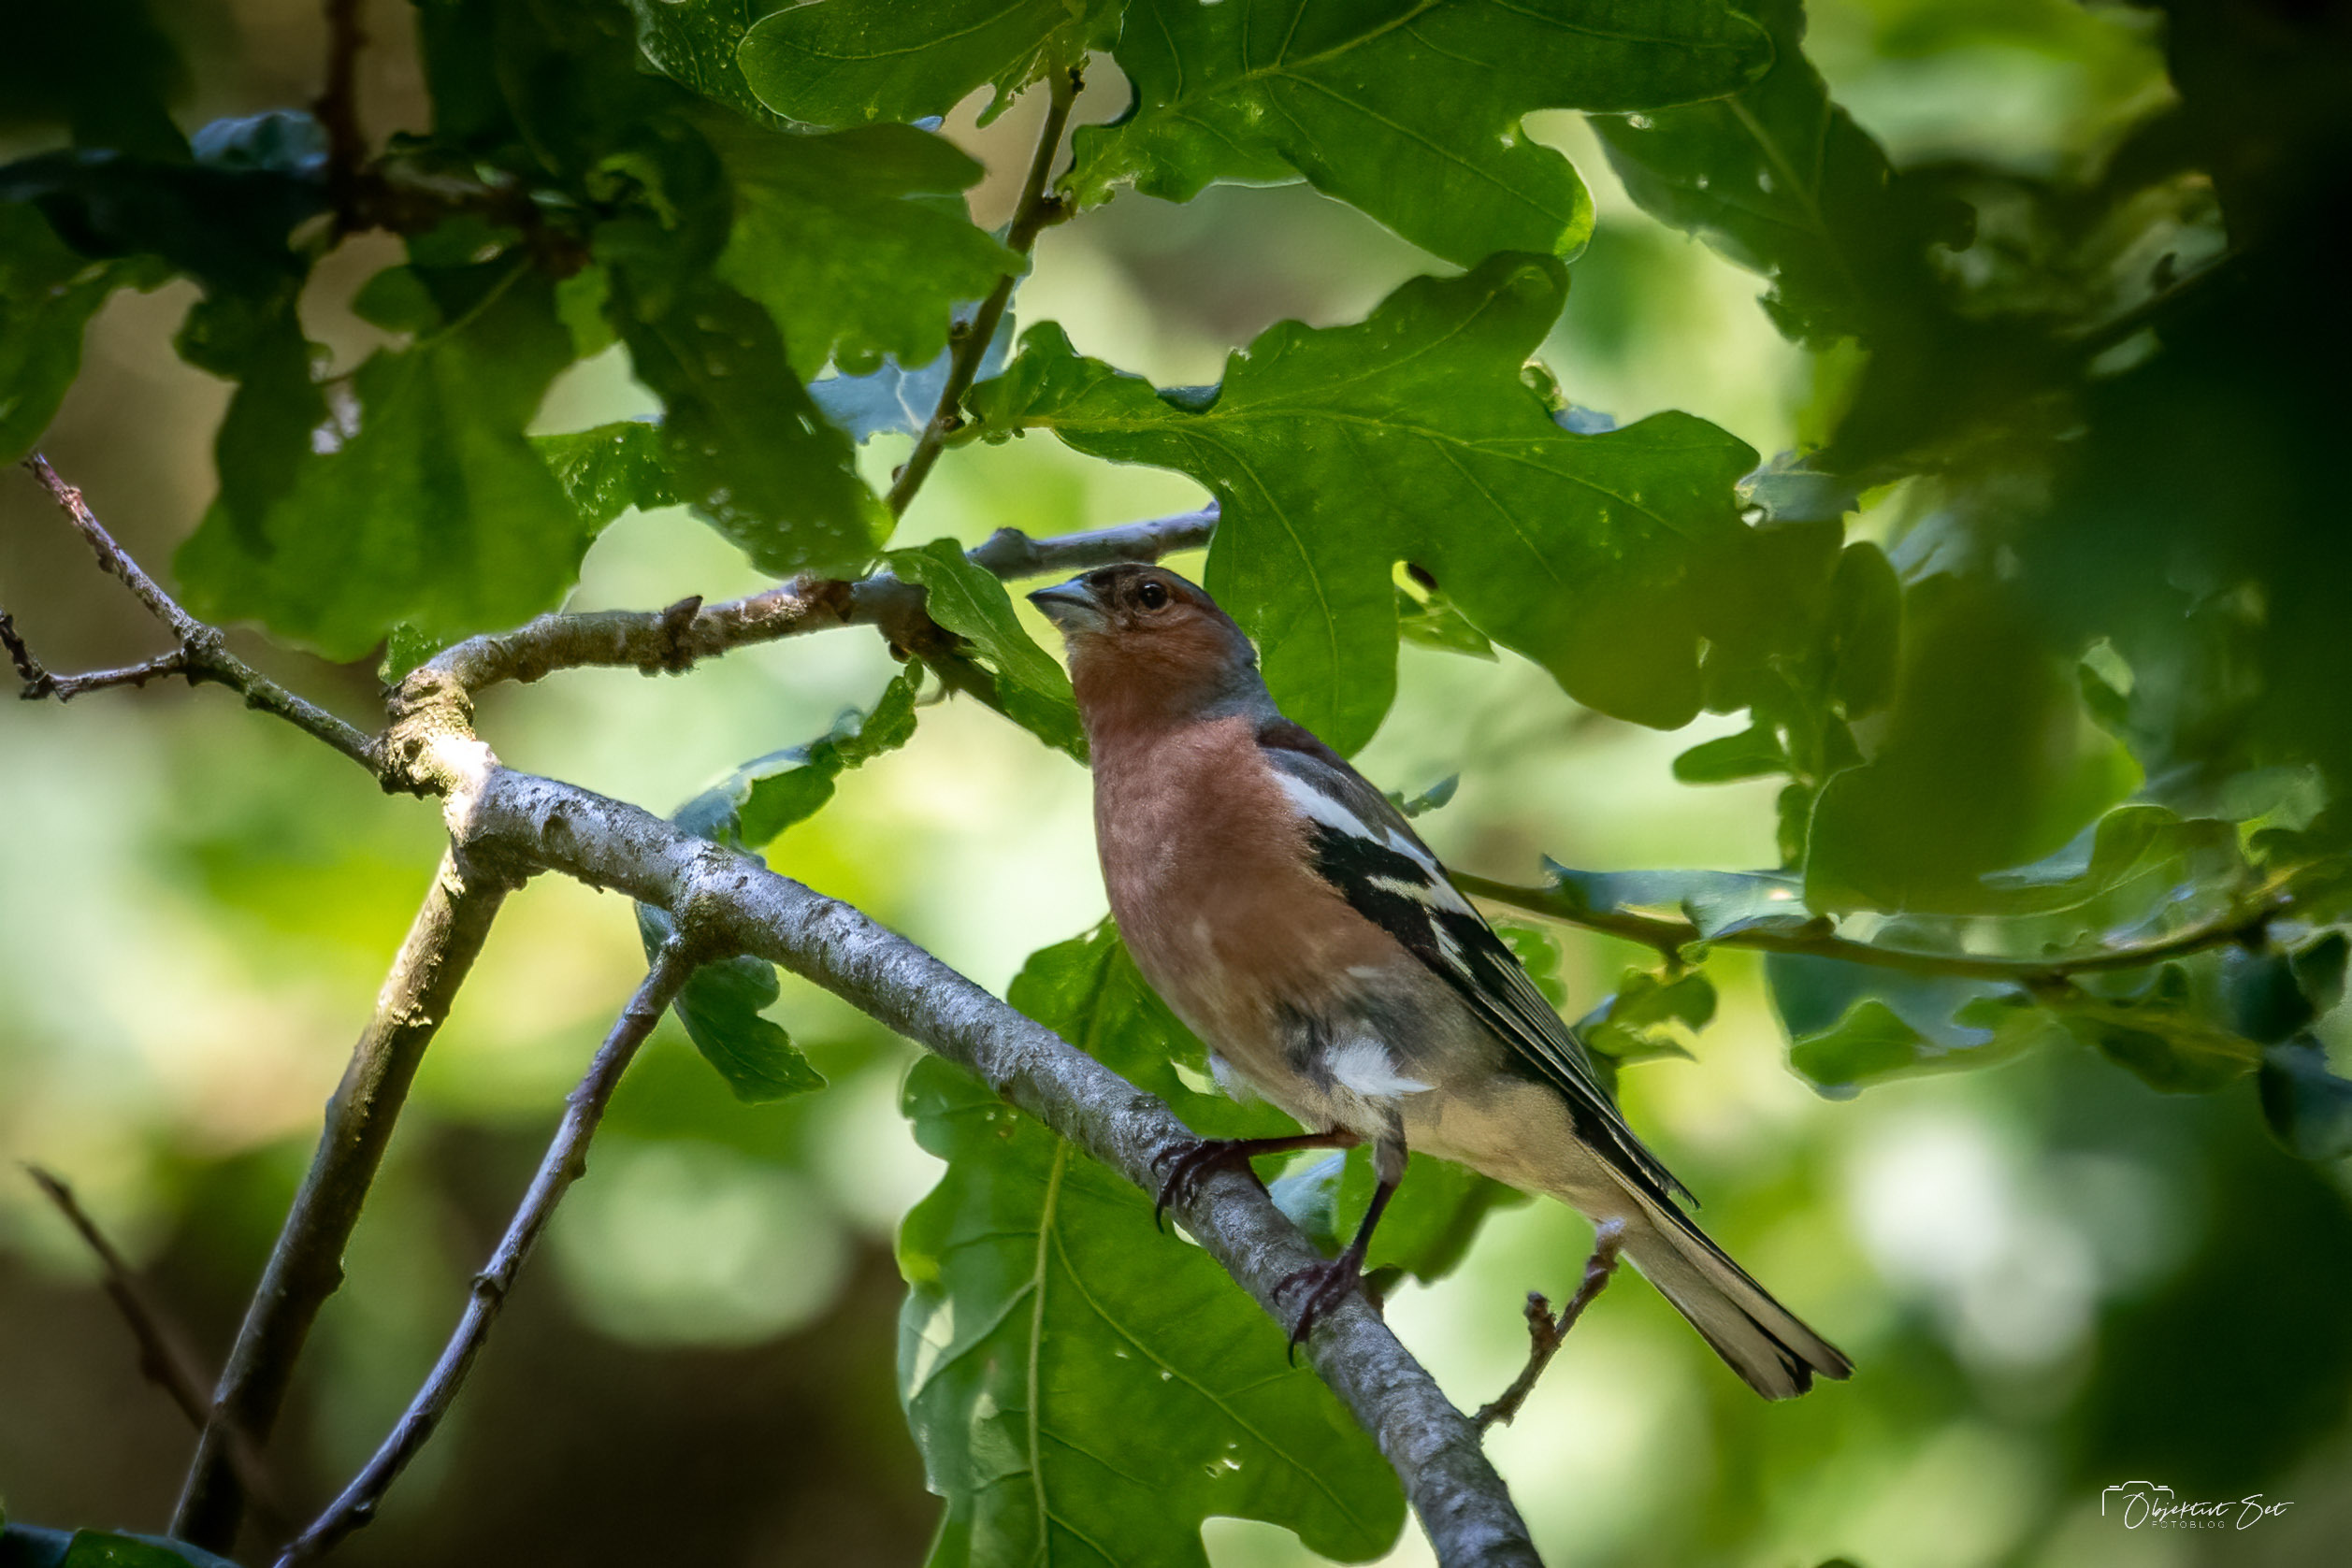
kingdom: Animalia
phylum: Chordata
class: Aves
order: Passeriformes
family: Fringillidae
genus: Fringilla
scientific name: Fringilla coelebs
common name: Bogfinke
